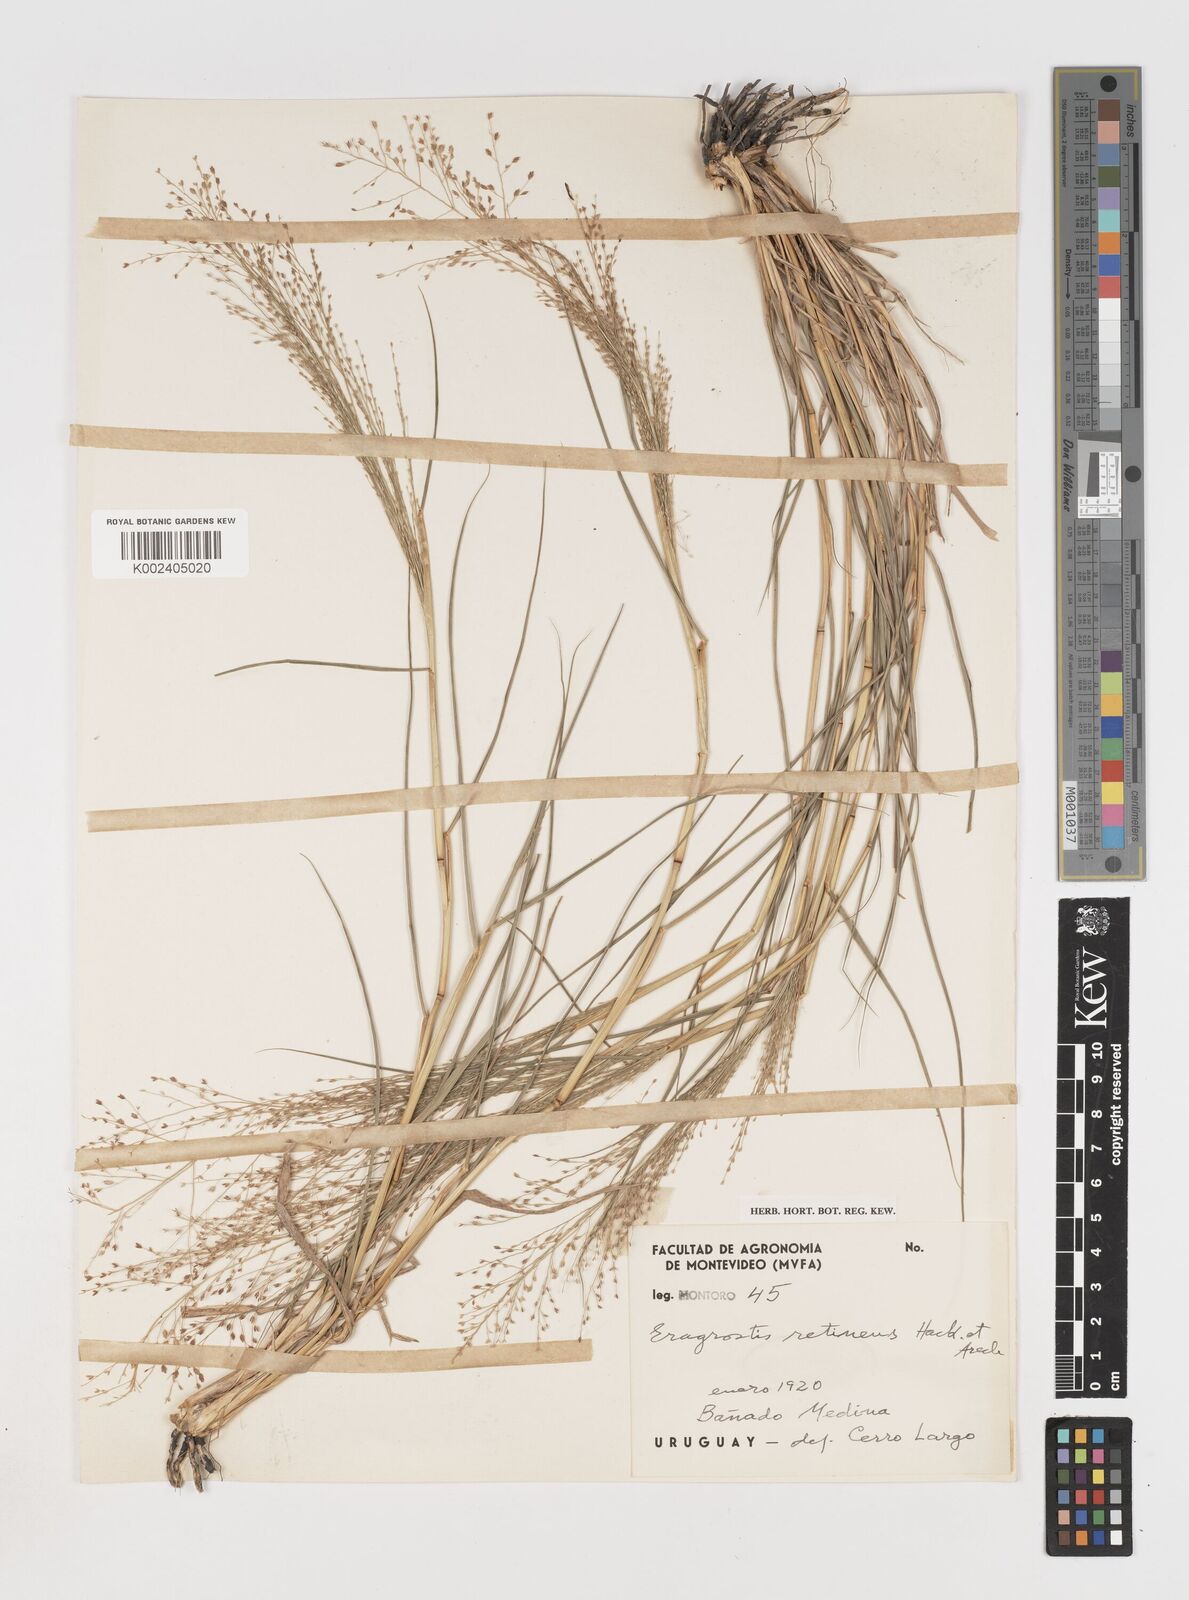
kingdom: Plantae
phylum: Tracheophyta
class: Liliopsida
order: Poales
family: Poaceae
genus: Eragrostis
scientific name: Eragrostis retinens
